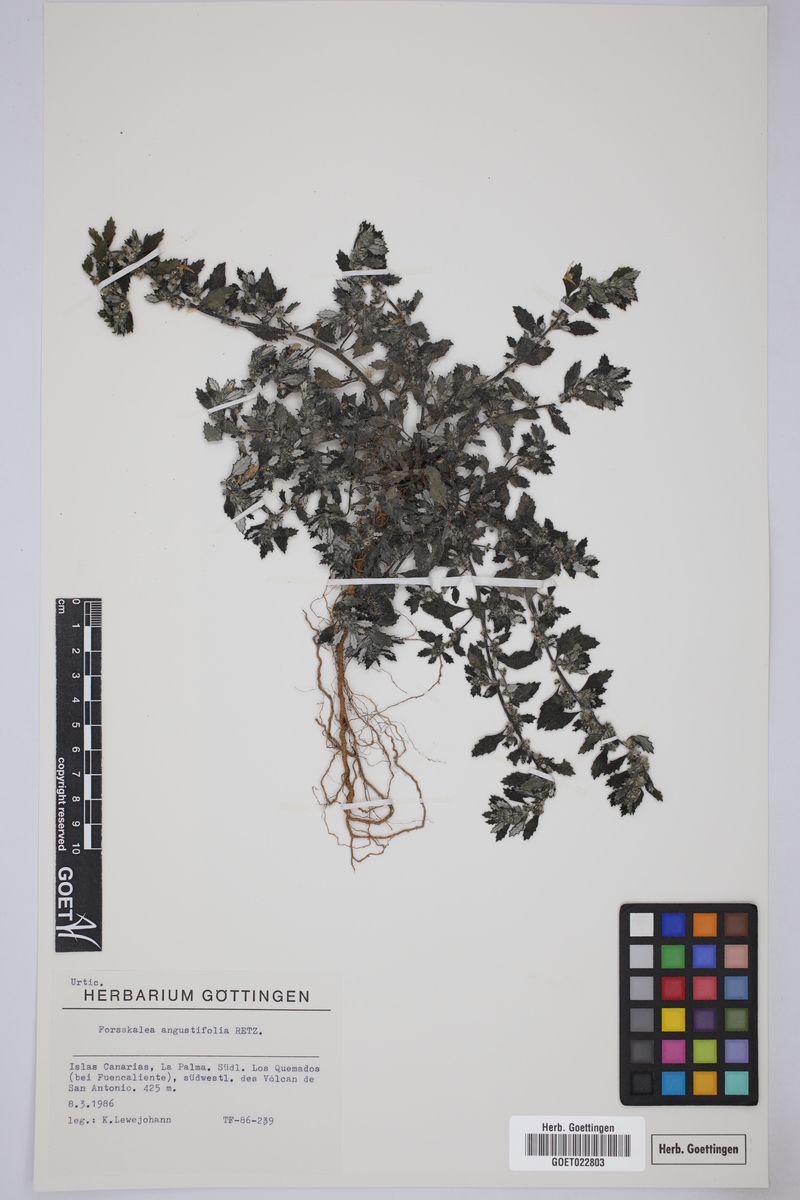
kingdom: Plantae
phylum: Tracheophyta
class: Magnoliopsida
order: Rosales
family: Urticaceae
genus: Forsskaolea
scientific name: Forsskaolea angustifolia
